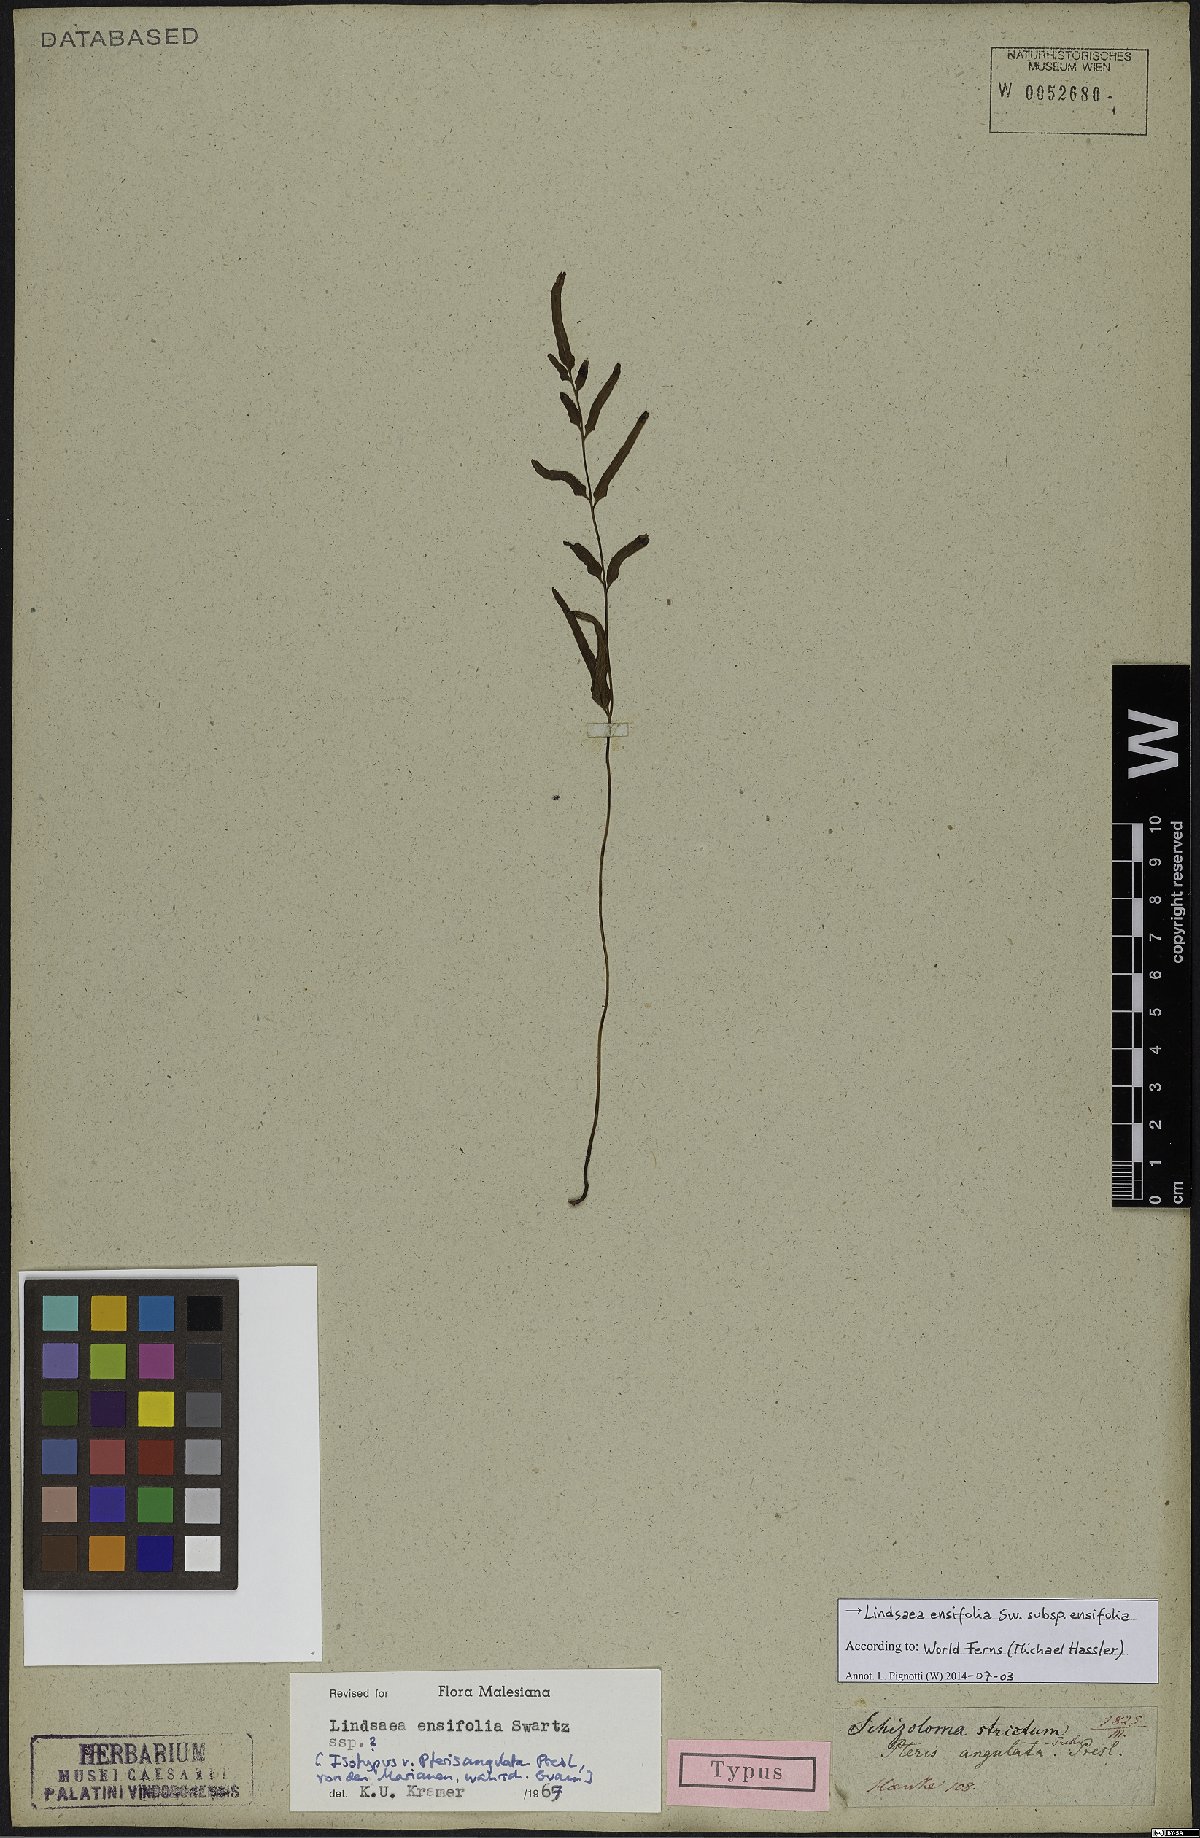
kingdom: Plantae
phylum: Tracheophyta
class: Polypodiopsida
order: Polypodiales
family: Lindsaeaceae
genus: Lindsaea
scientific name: Lindsaea ensifolia
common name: Graceful necklace fern
